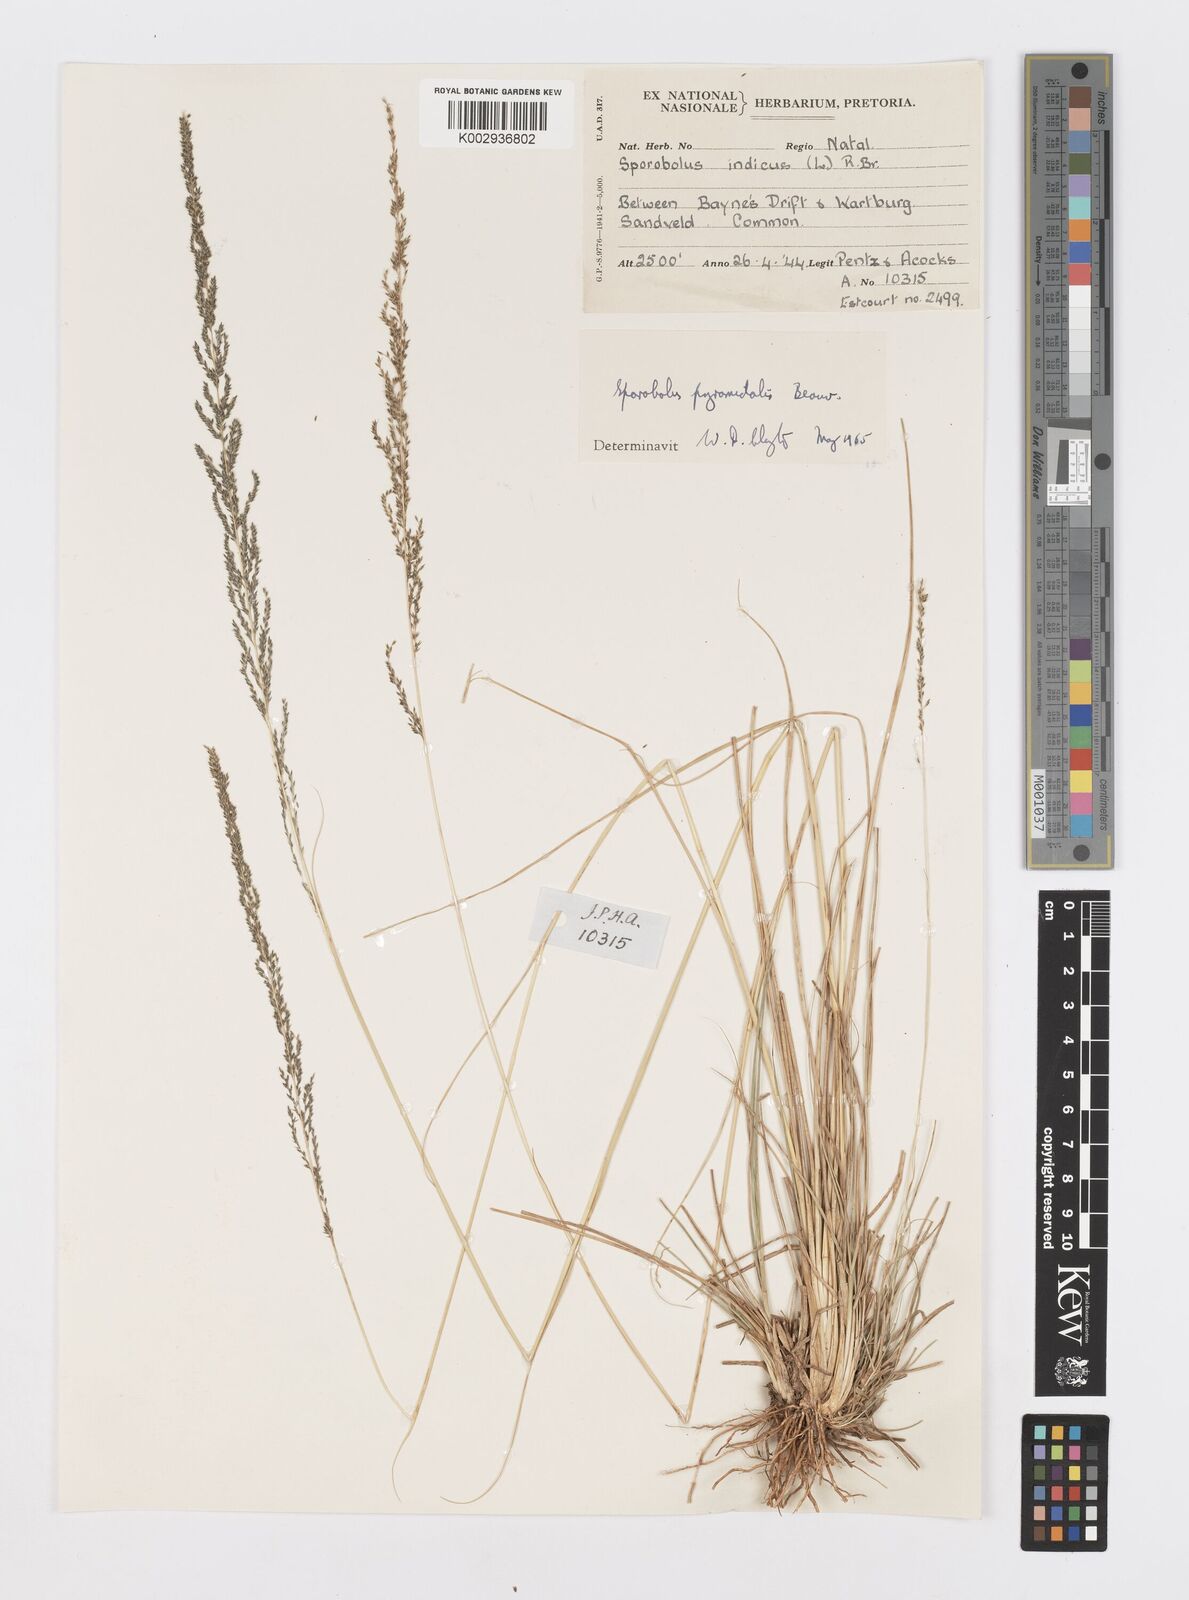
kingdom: Plantae
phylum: Tracheophyta
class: Liliopsida
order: Poales
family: Poaceae
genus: Sporobolus
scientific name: Sporobolus pyramidalis
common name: West indian dropseed
